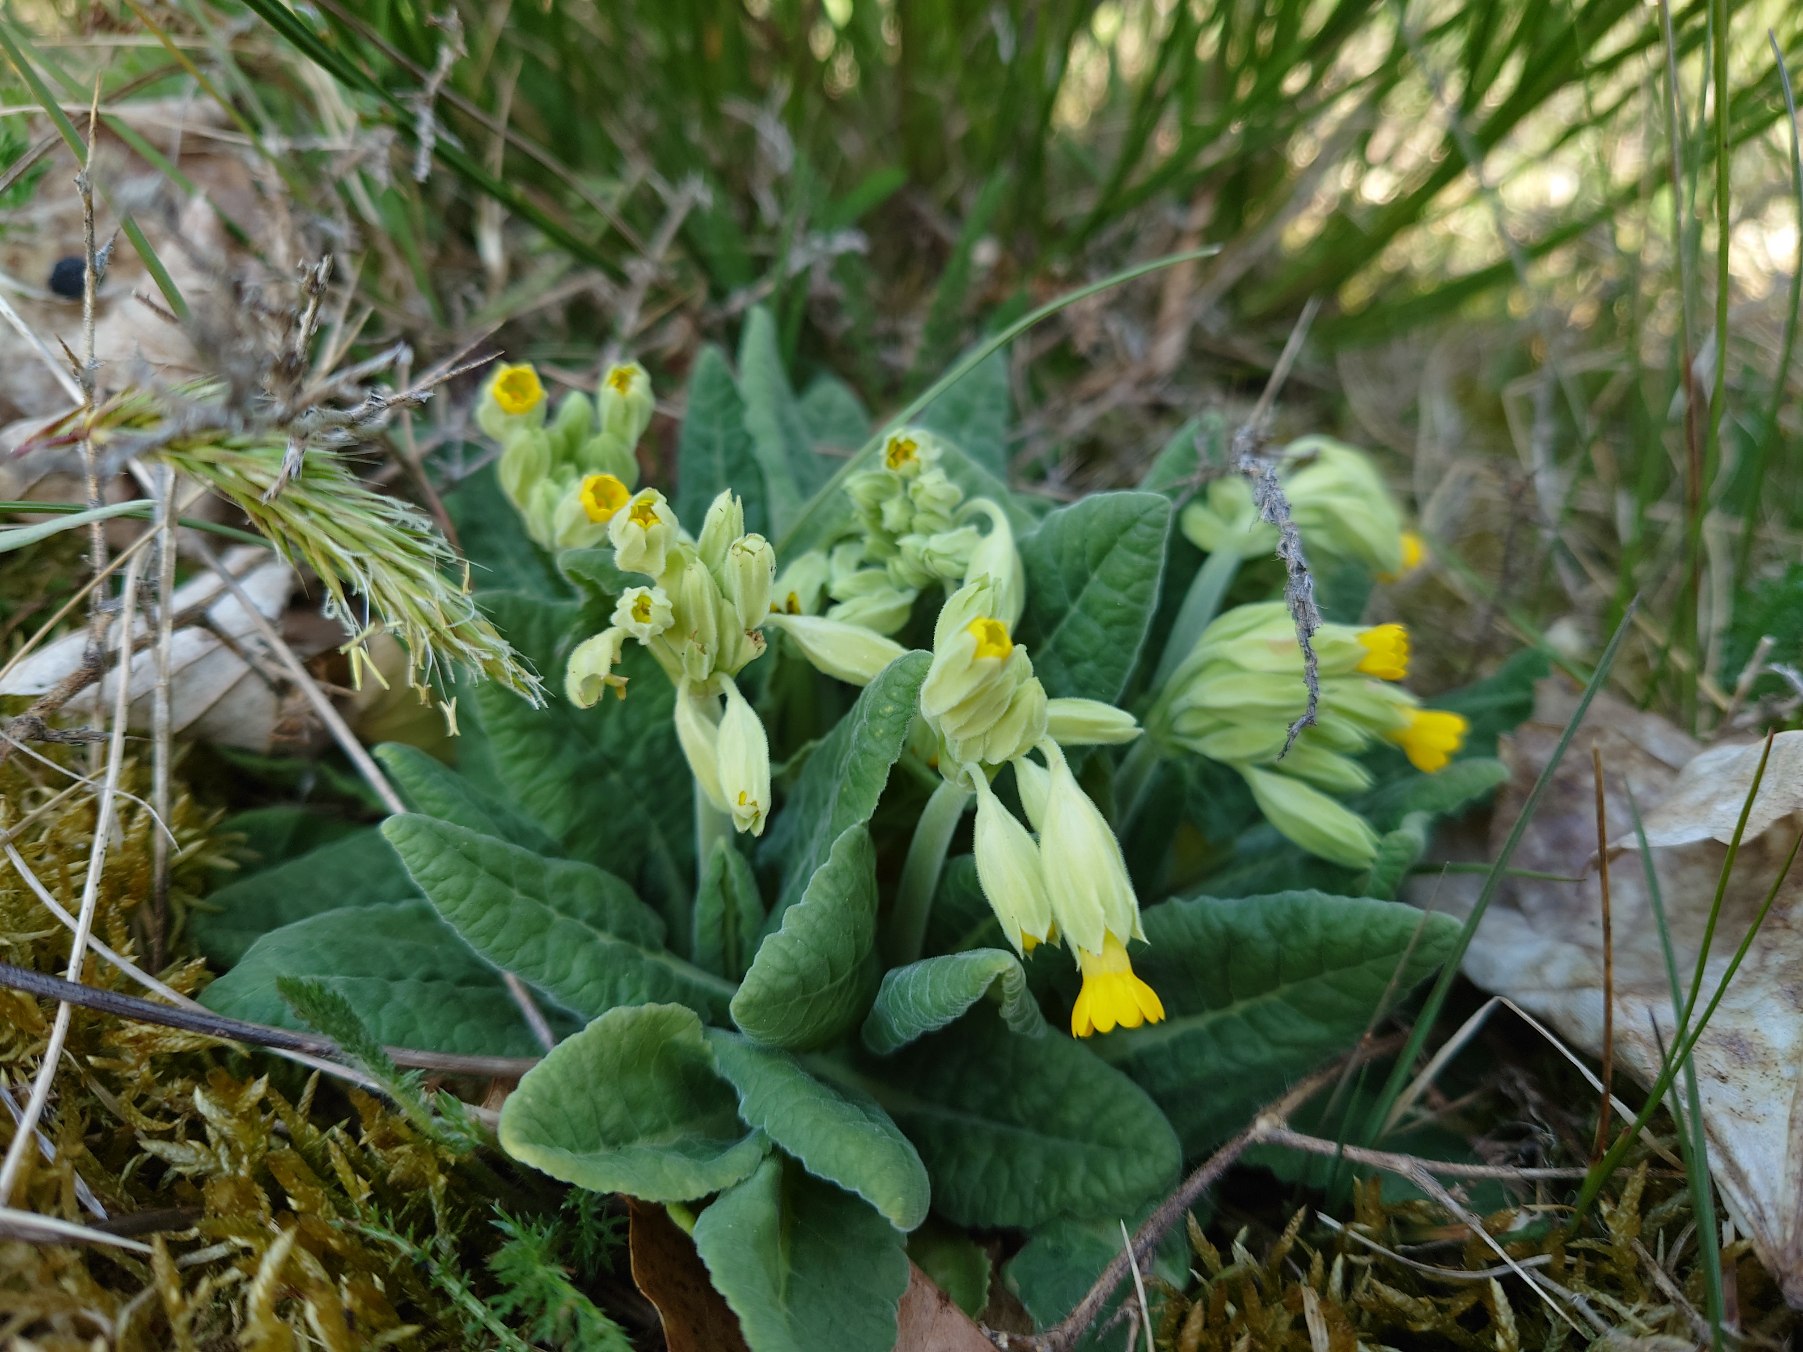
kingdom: Plantae
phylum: Tracheophyta
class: Magnoliopsida
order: Ericales
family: Primulaceae
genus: Primula
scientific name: Primula veris
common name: Hulkravet kodriver
